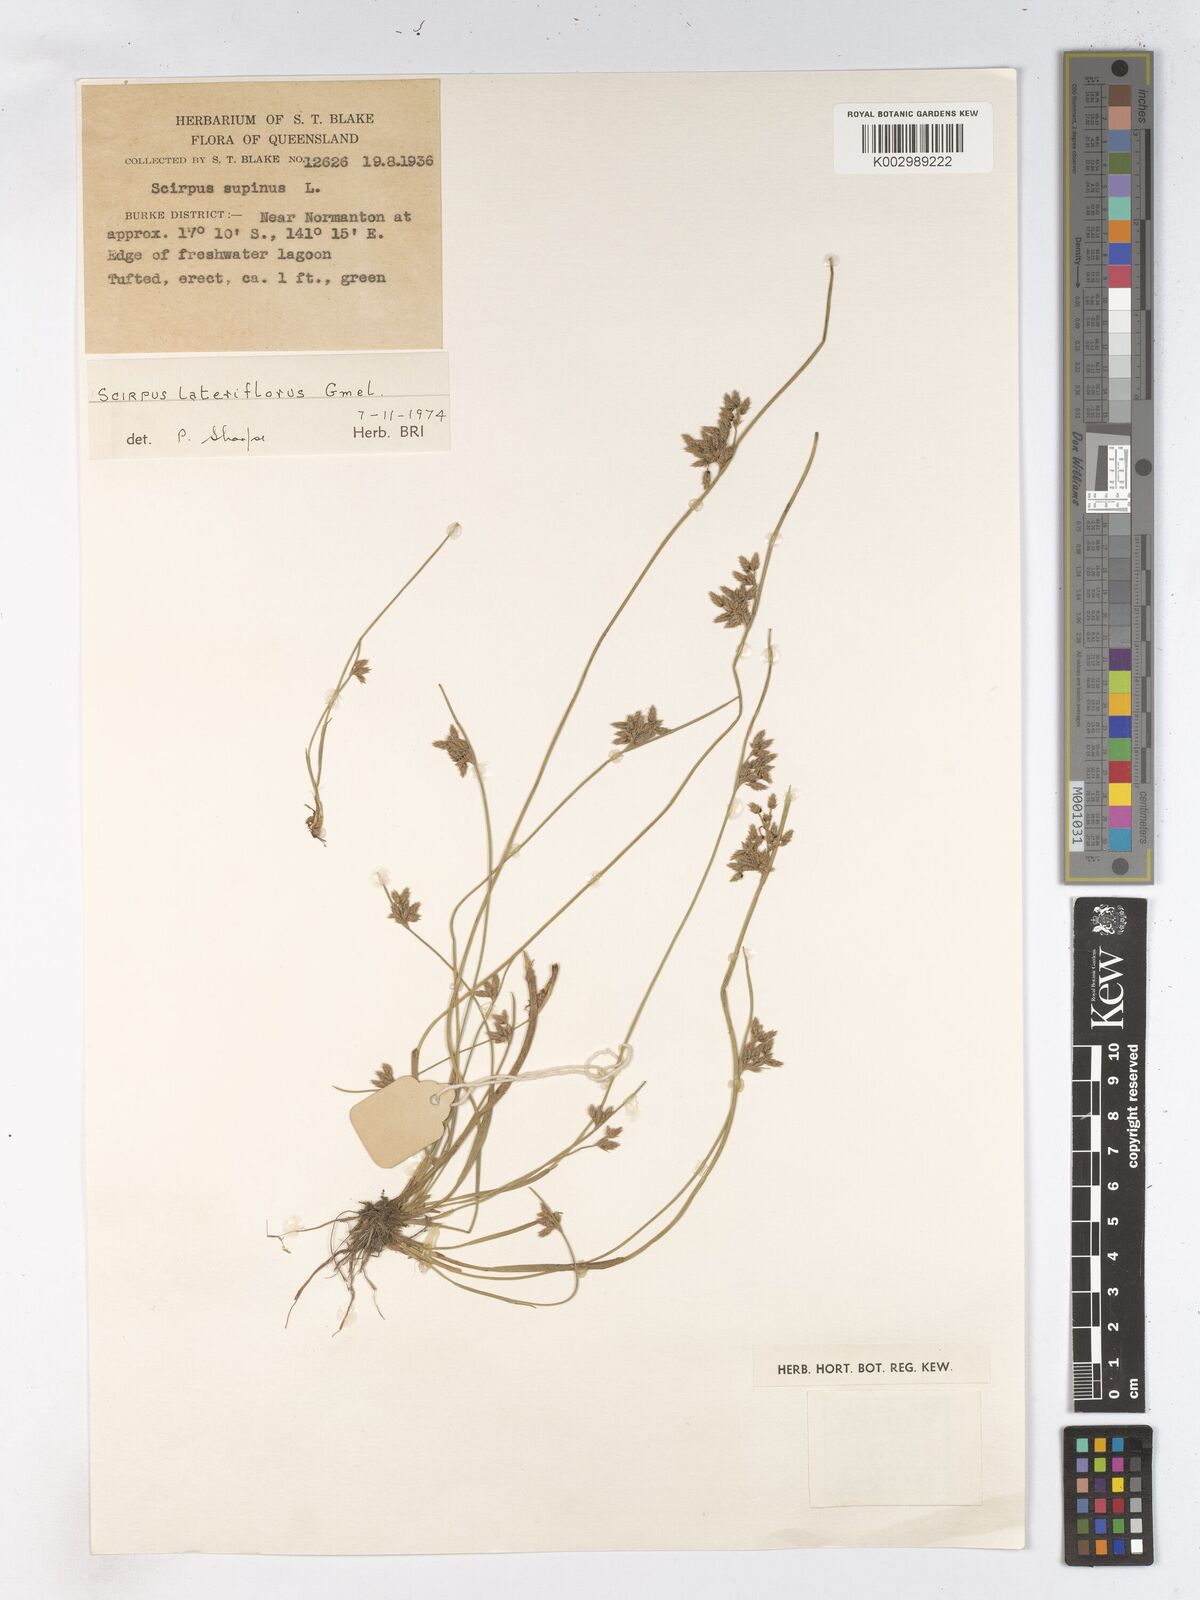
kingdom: Plantae
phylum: Tracheophyta
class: Liliopsida
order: Poales
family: Cyperaceae
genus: Schoenoplectiella
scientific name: Schoenoplectiella supina
